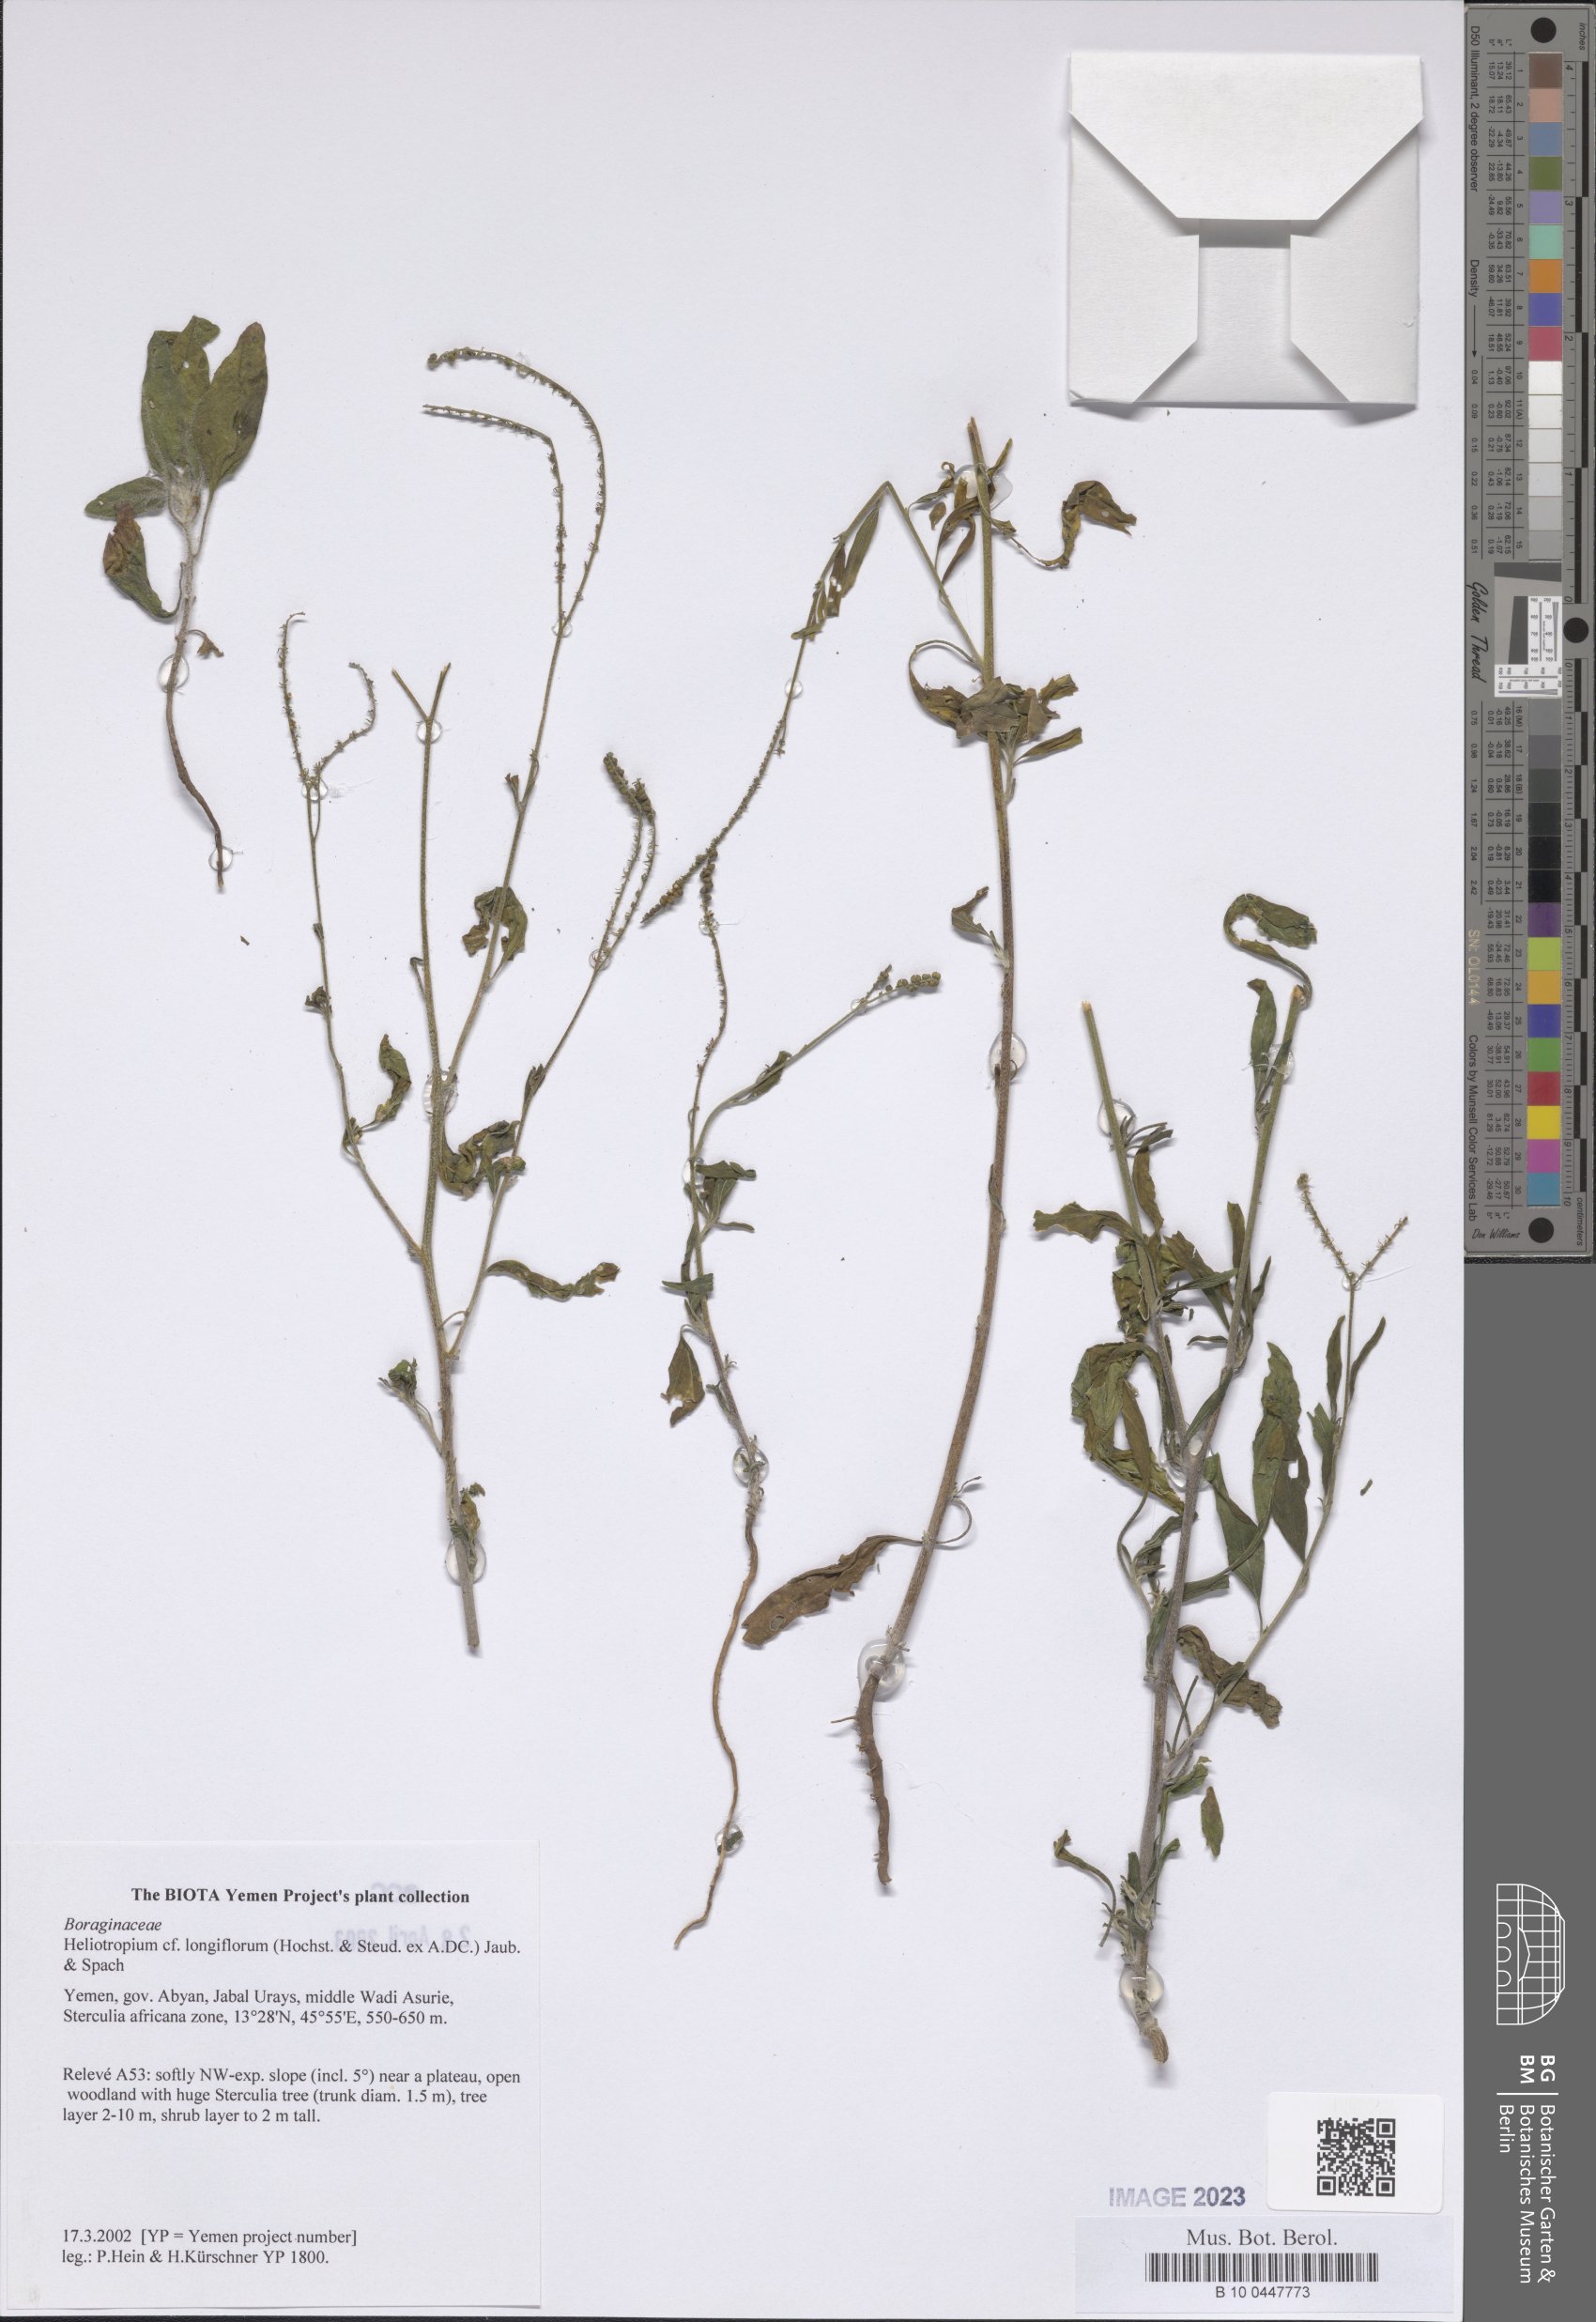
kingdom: Plantae
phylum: Tracheophyta
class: Magnoliopsida
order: Boraginales
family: Heliotropiaceae
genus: Heliotropium
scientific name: Heliotropium longiflorum
